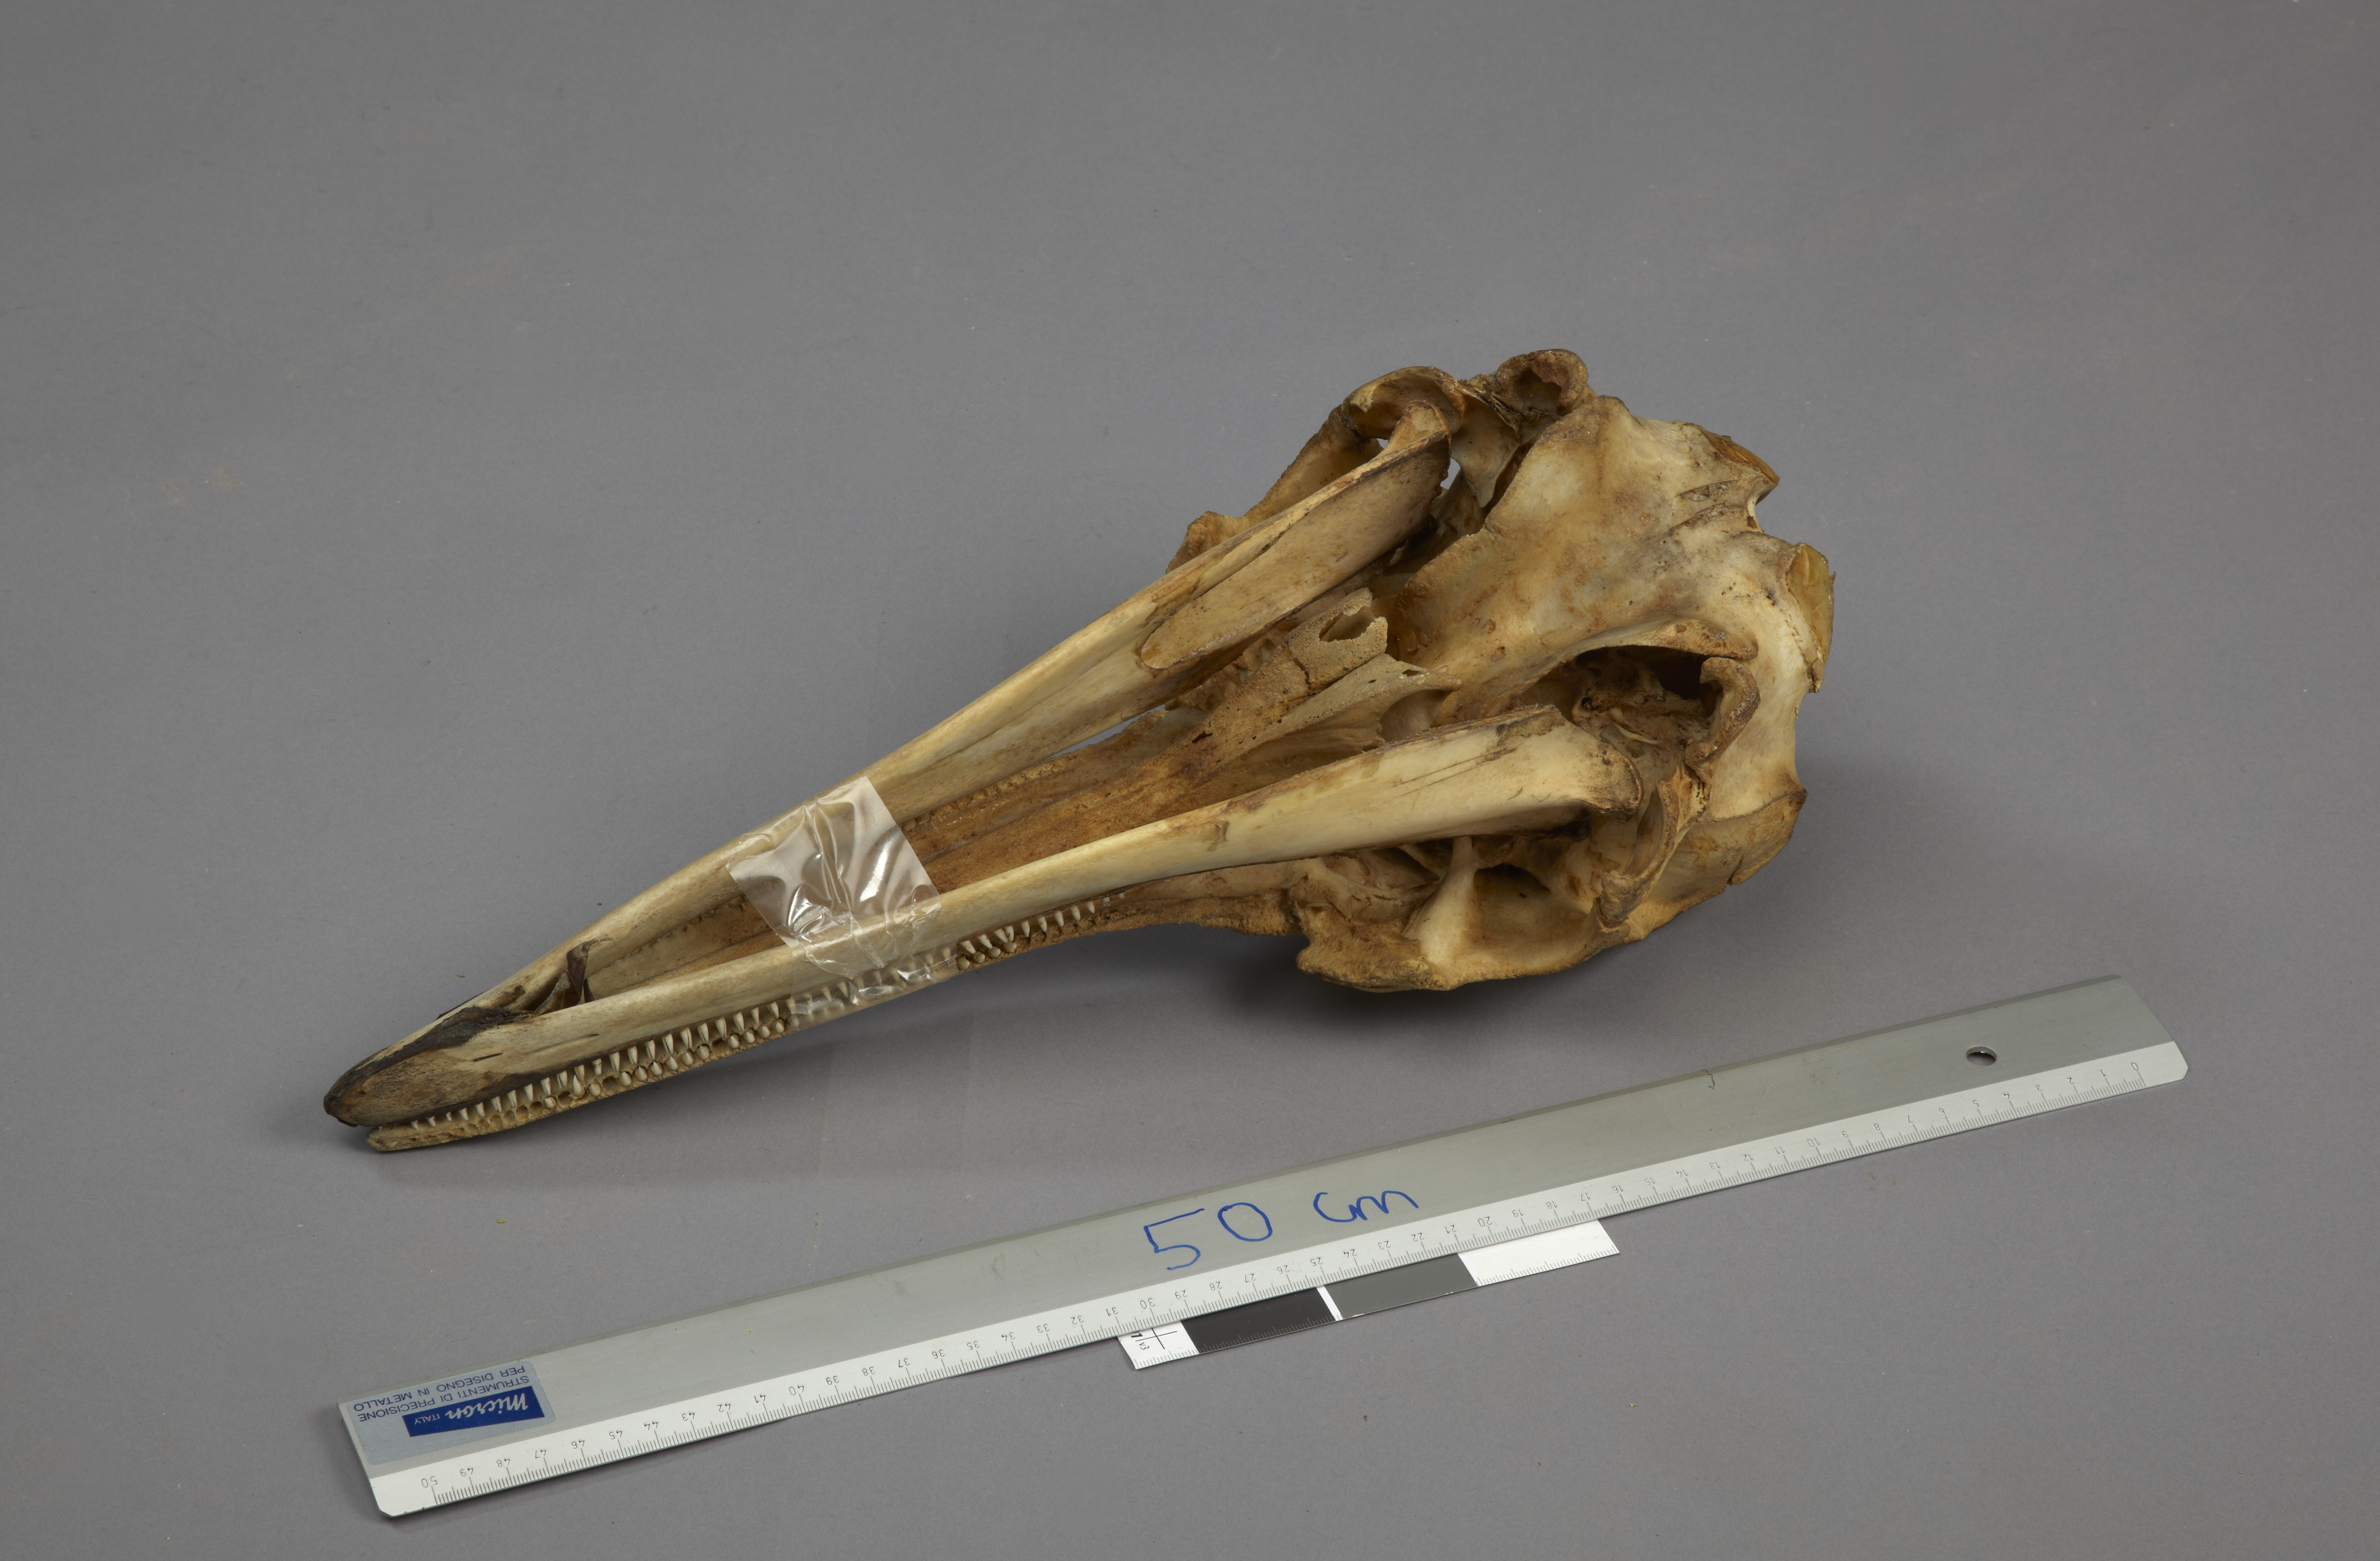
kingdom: Animalia
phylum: Chordata
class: Mammalia
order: Cetacea
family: Delphinidae
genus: Delphinus
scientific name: Delphinus delphis
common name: Common dolphin
